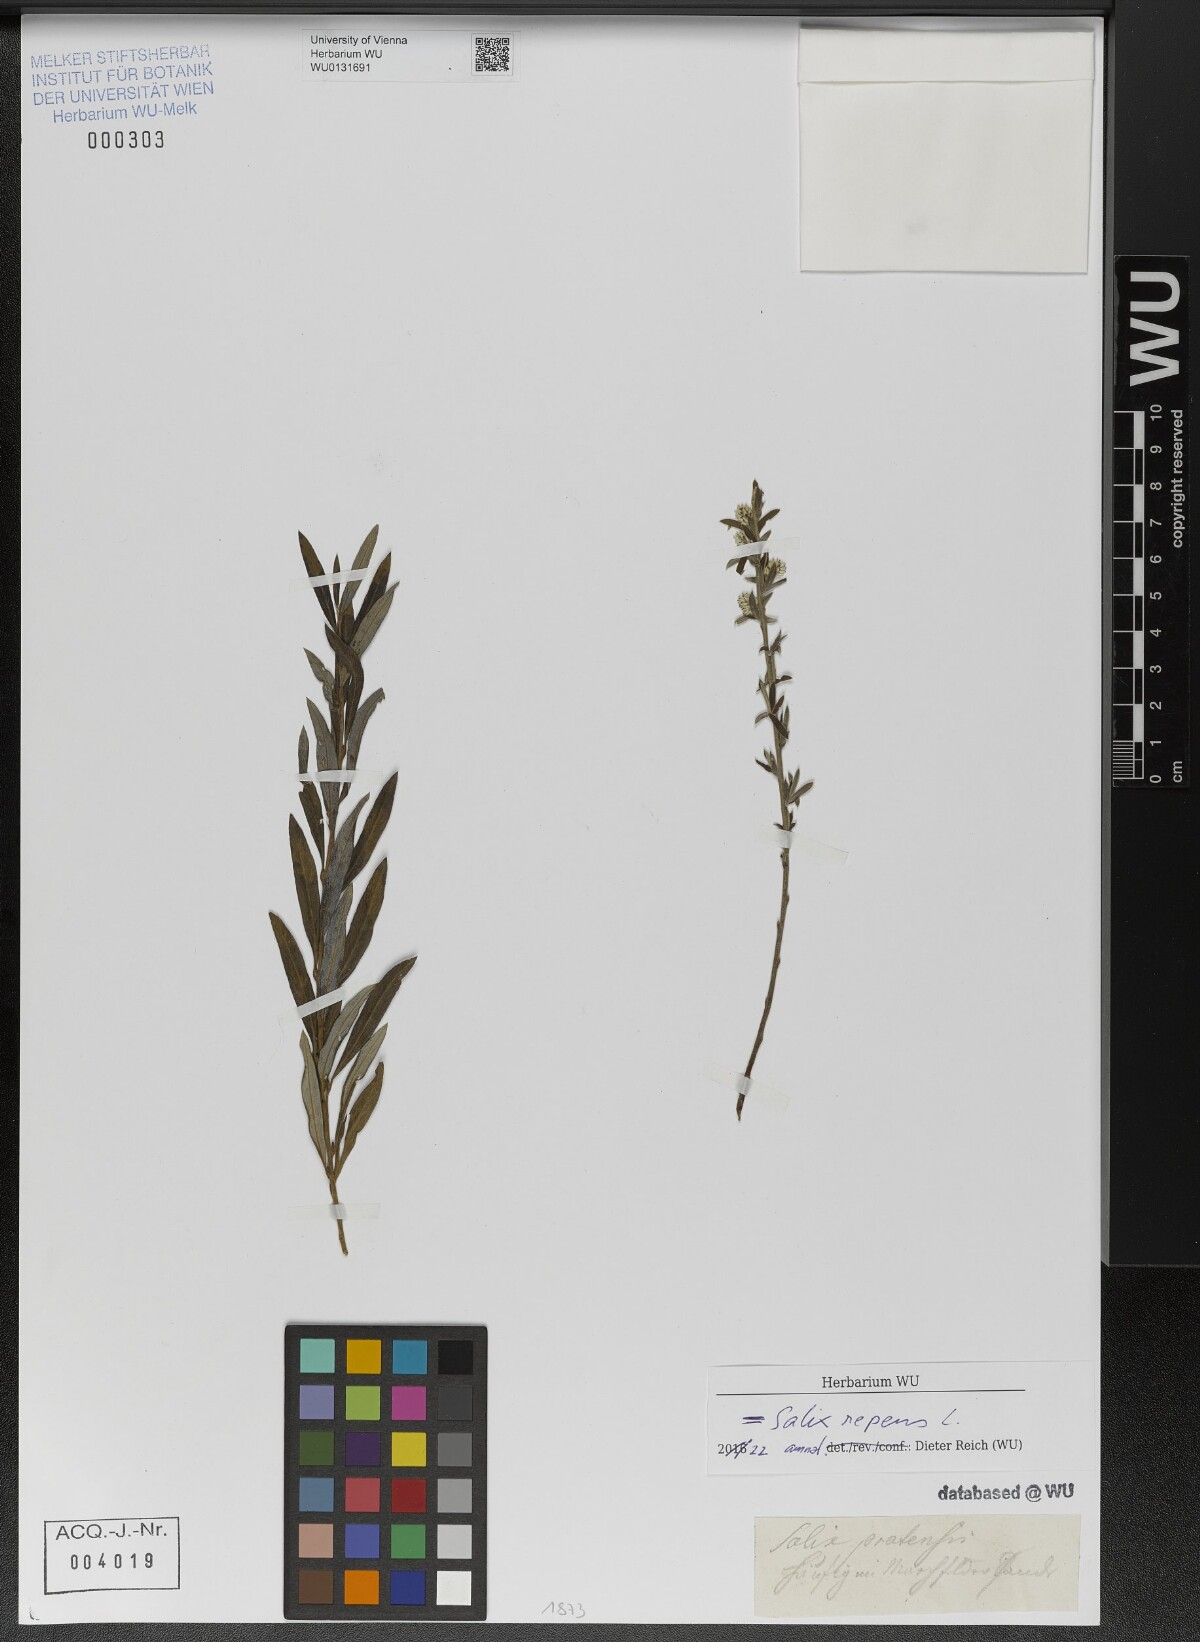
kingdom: Plantae
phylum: Tracheophyta
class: Magnoliopsida
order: Malpighiales
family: Salicaceae
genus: Salix
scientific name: Salix repens
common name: Creeping willow
